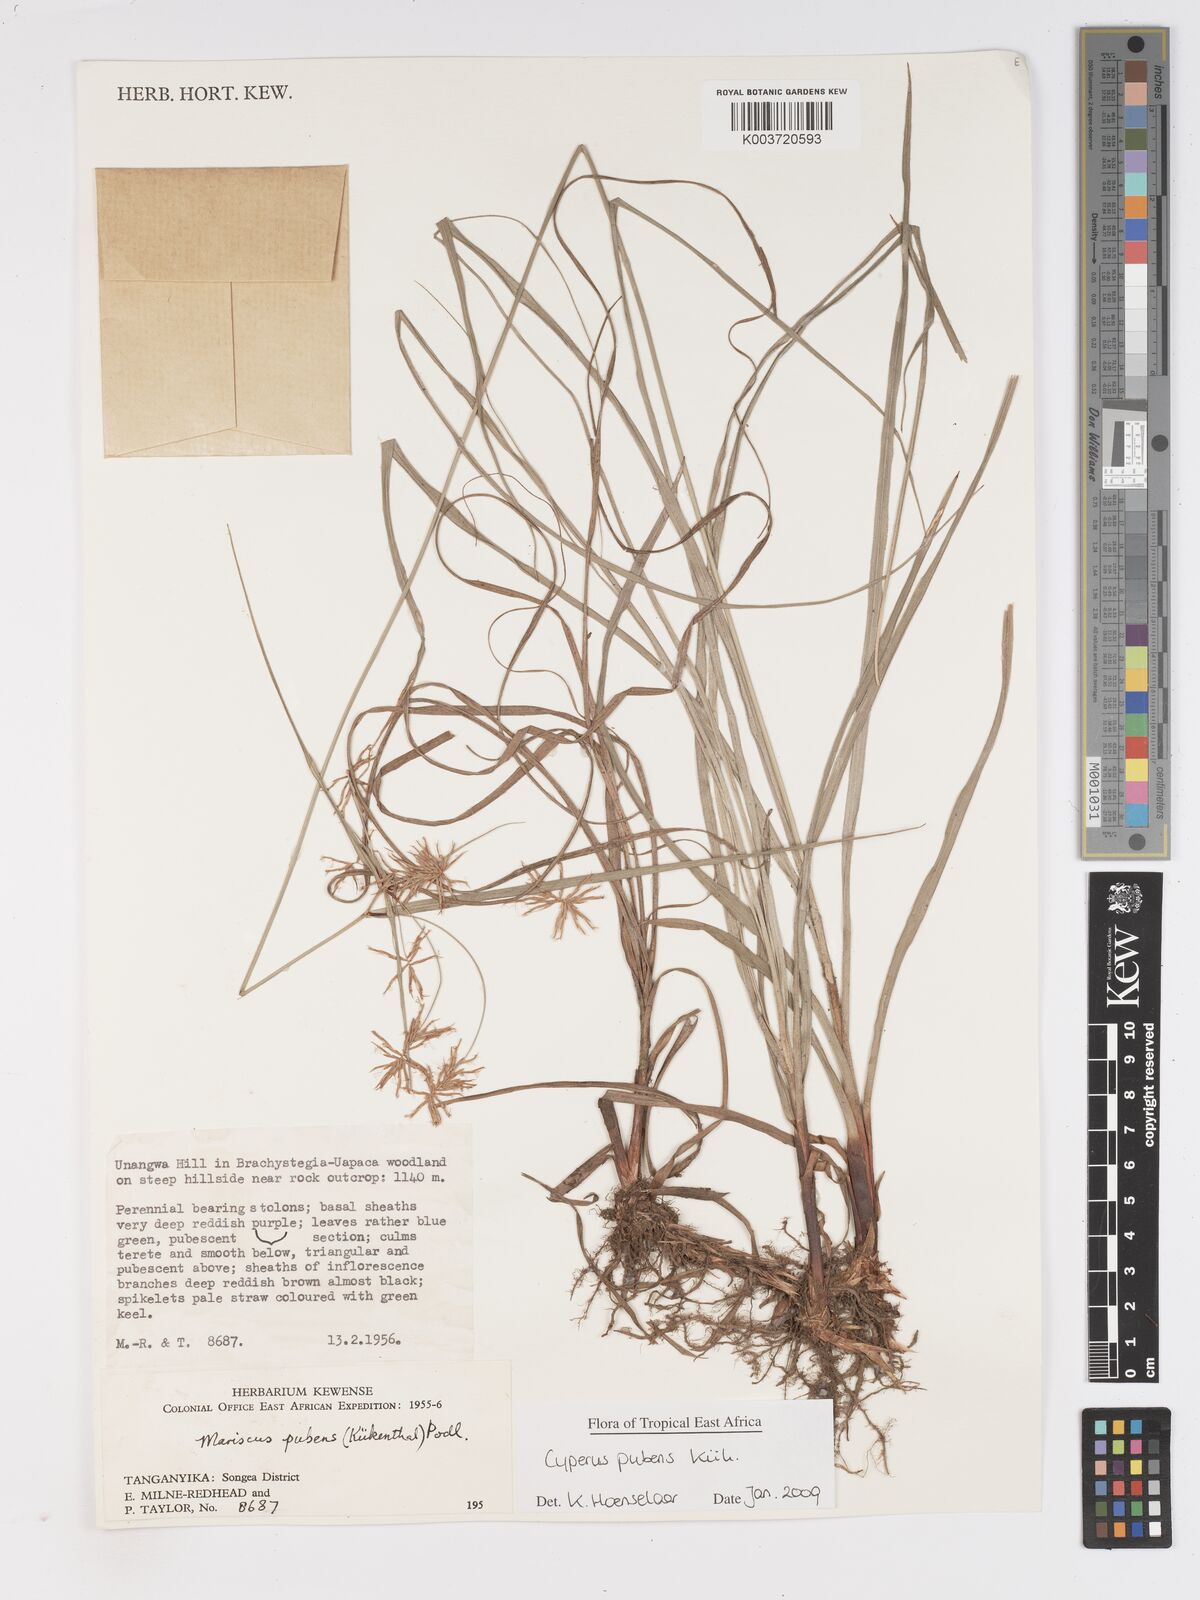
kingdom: Plantae
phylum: Tracheophyta
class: Liliopsida
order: Poales
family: Cyperaceae
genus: Cyperus
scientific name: Cyperus pubens
